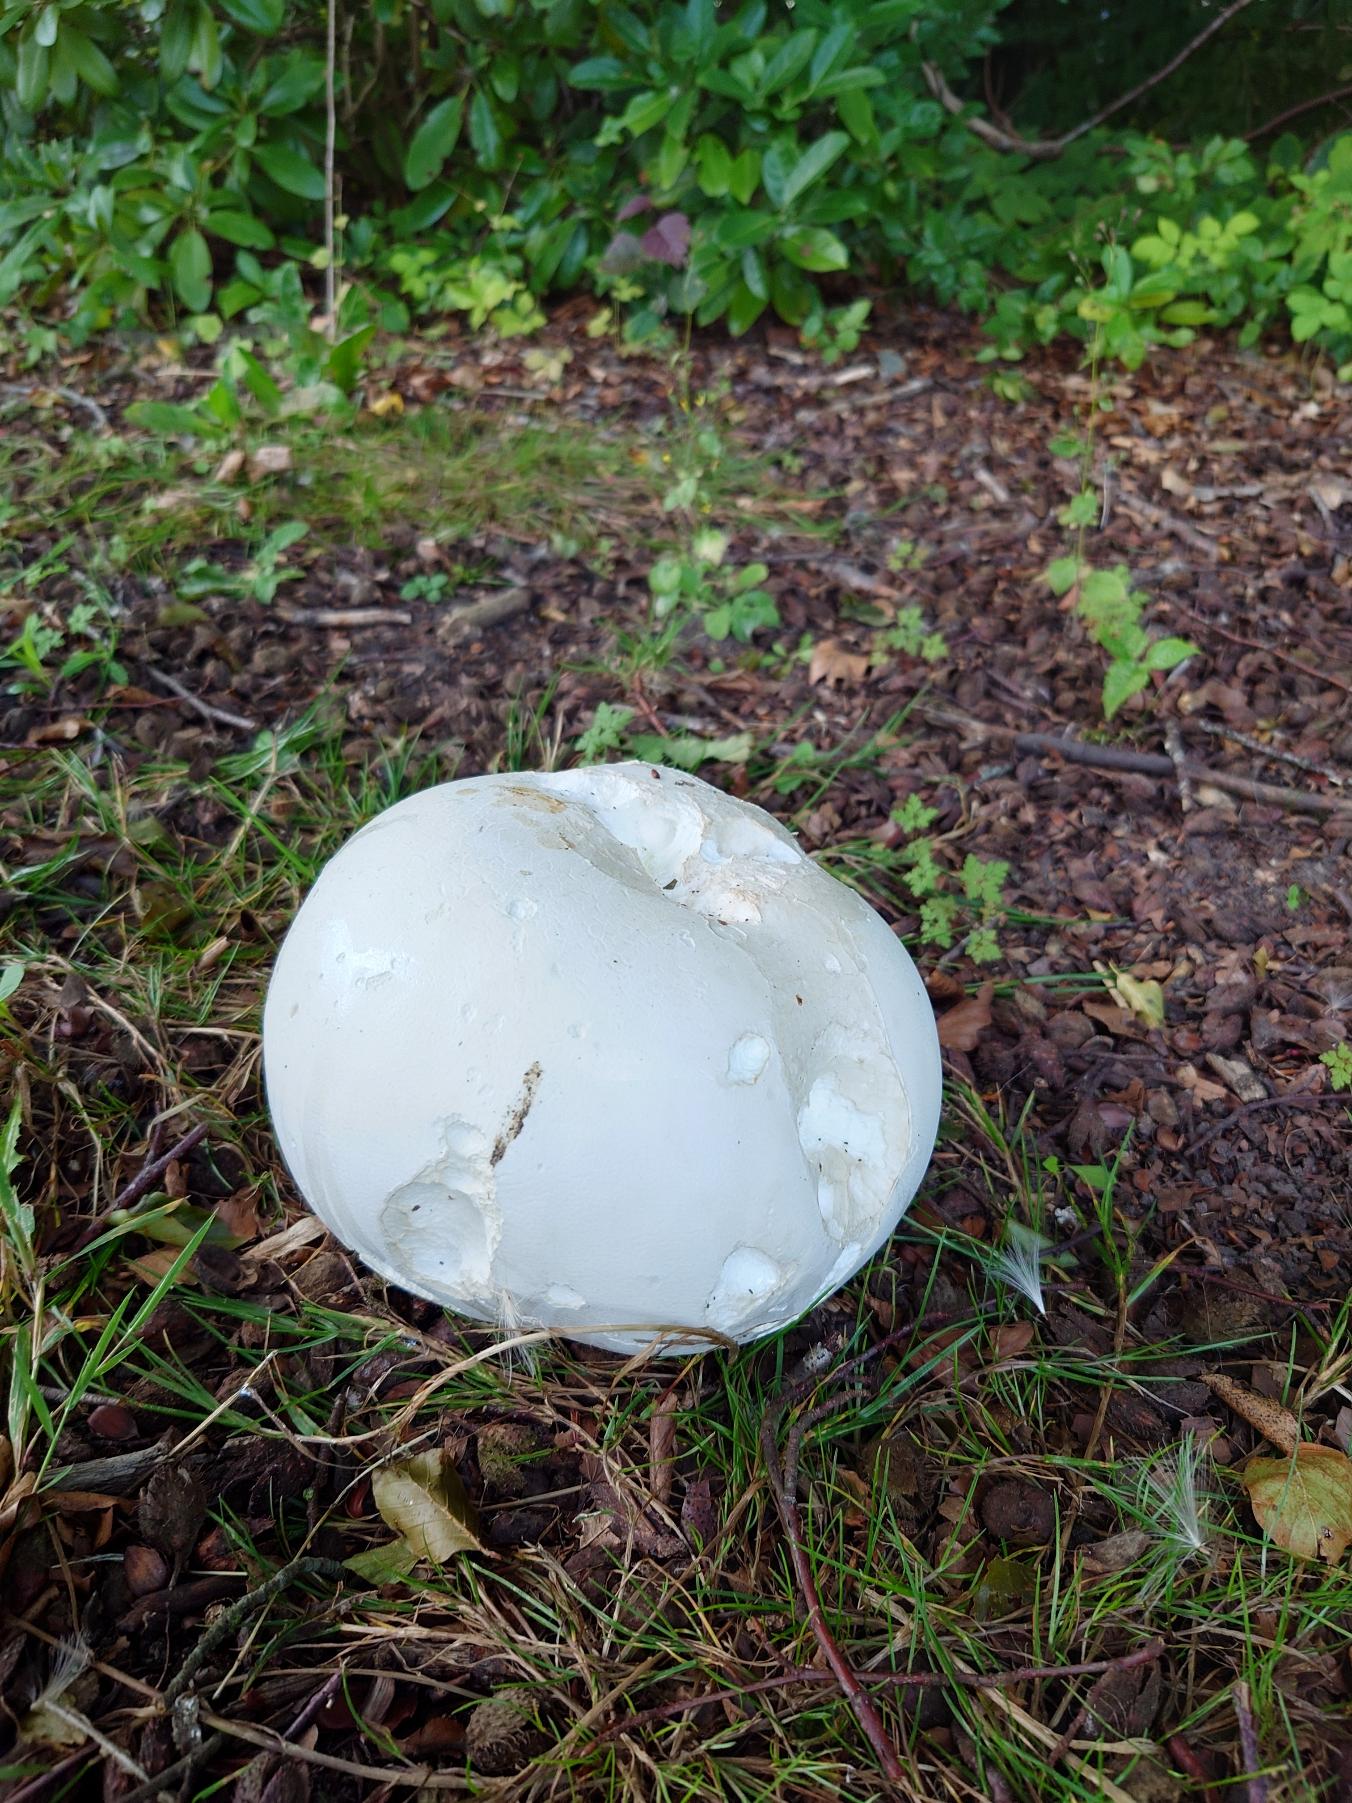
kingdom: Fungi
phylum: Basidiomycota
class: Agaricomycetes
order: Agaricales
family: Lycoperdaceae
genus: Calvatia
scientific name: Calvatia gigantea
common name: Kæmpestøvbold
